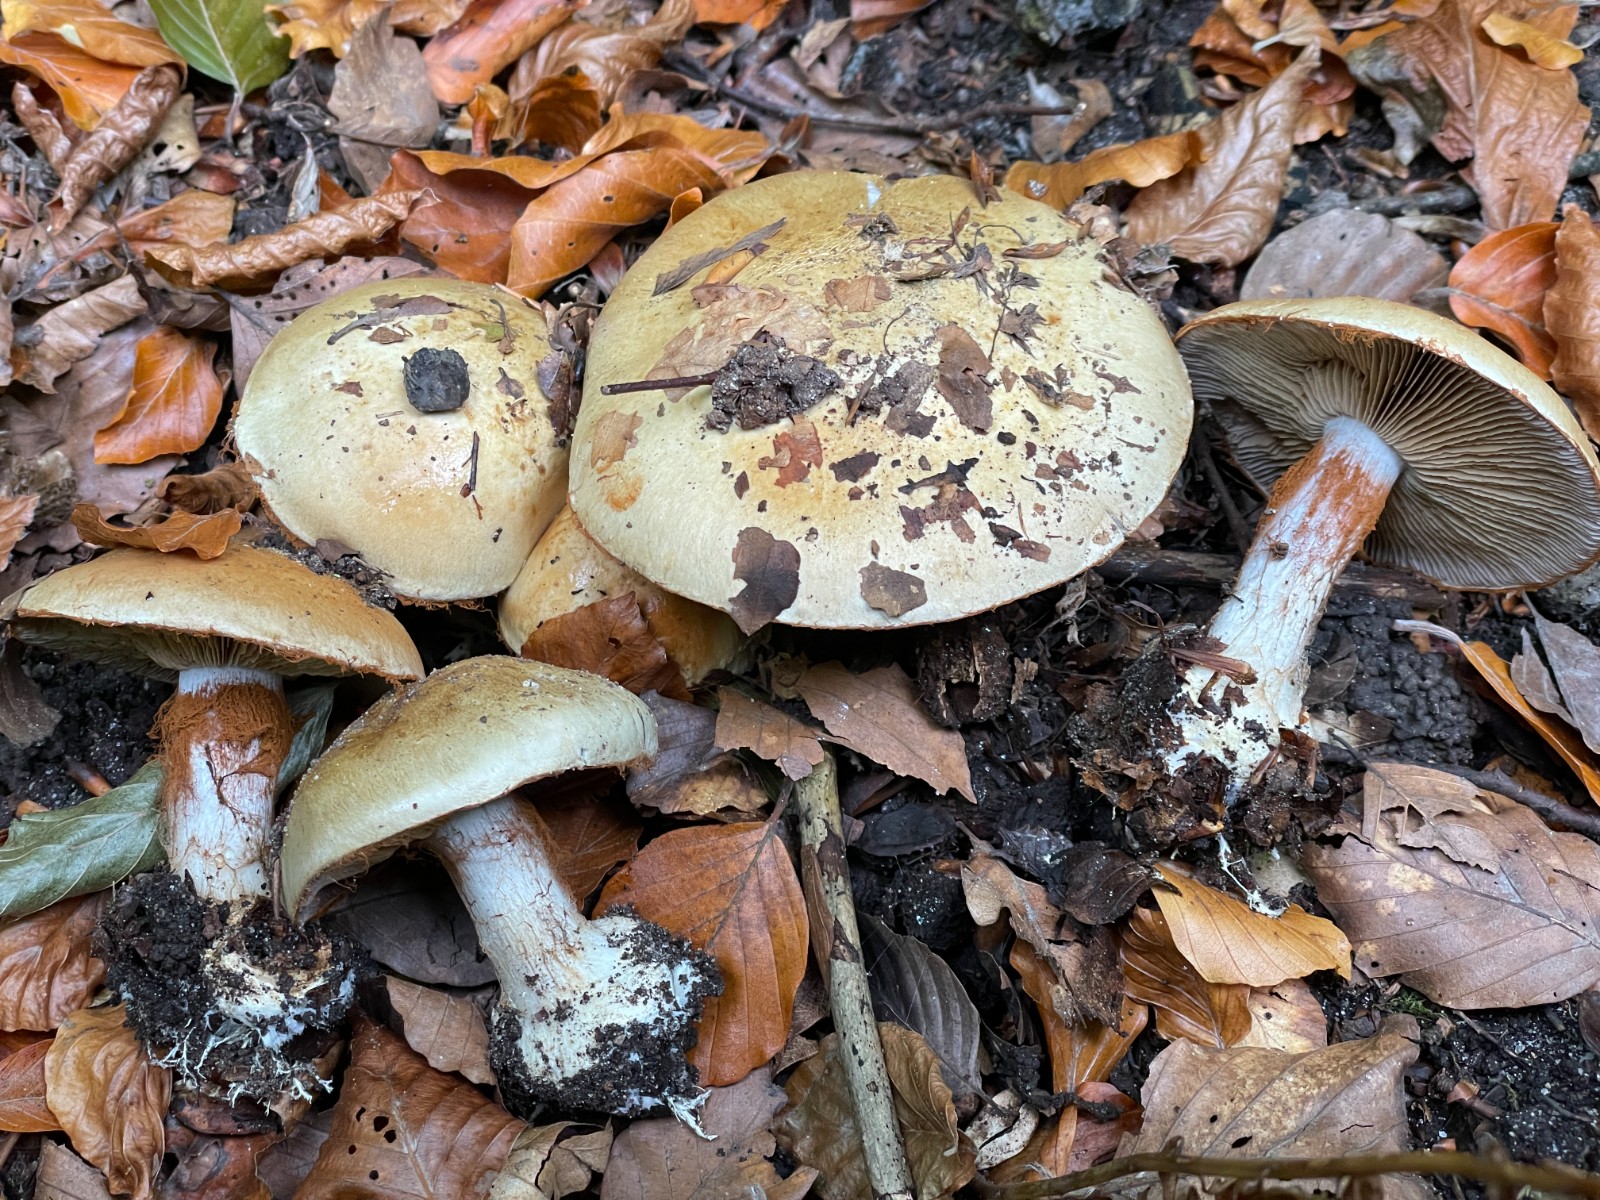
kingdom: Fungi
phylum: Basidiomycota
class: Agaricomycetes
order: Agaricales
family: Cortinariaceae
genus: Cortinarius
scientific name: Cortinarius anserinus
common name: bøge-slørhat
